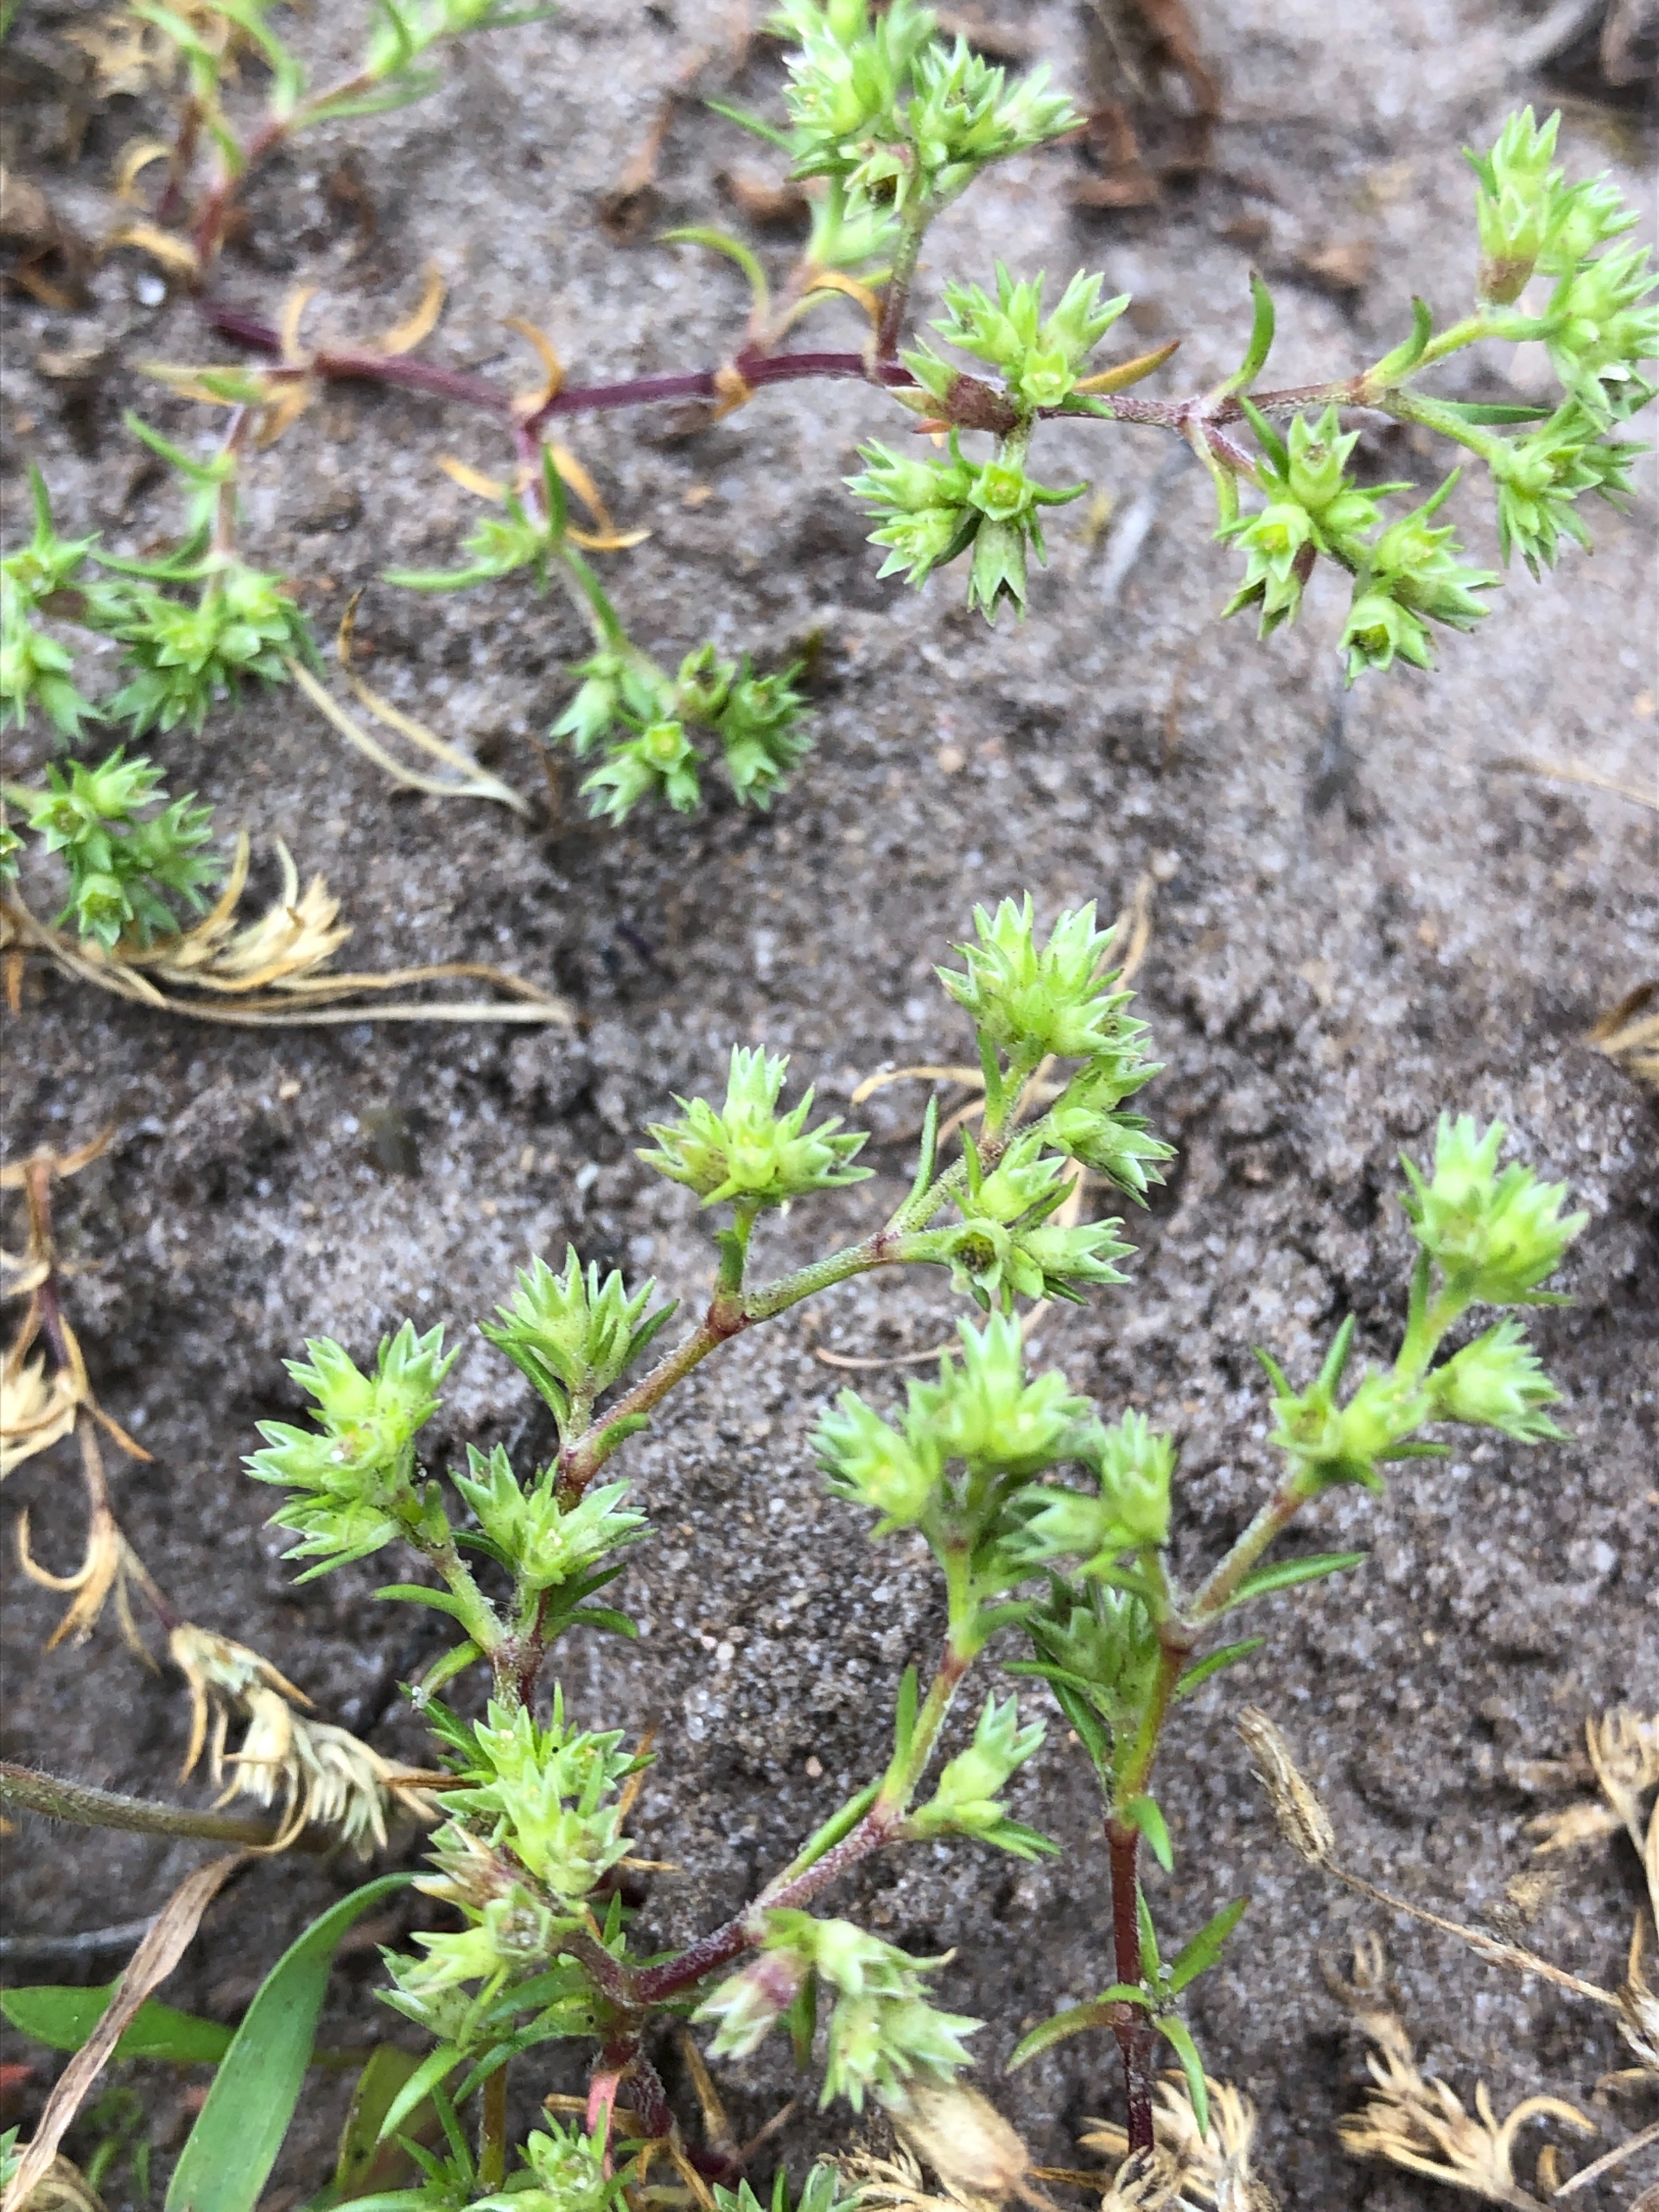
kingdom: Plantae
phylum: Tracheophyta
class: Magnoliopsida
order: Caryophyllales
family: Caryophyllaceae
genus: Scleranthus
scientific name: Scleranthus annuus
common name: Enårig knavel
